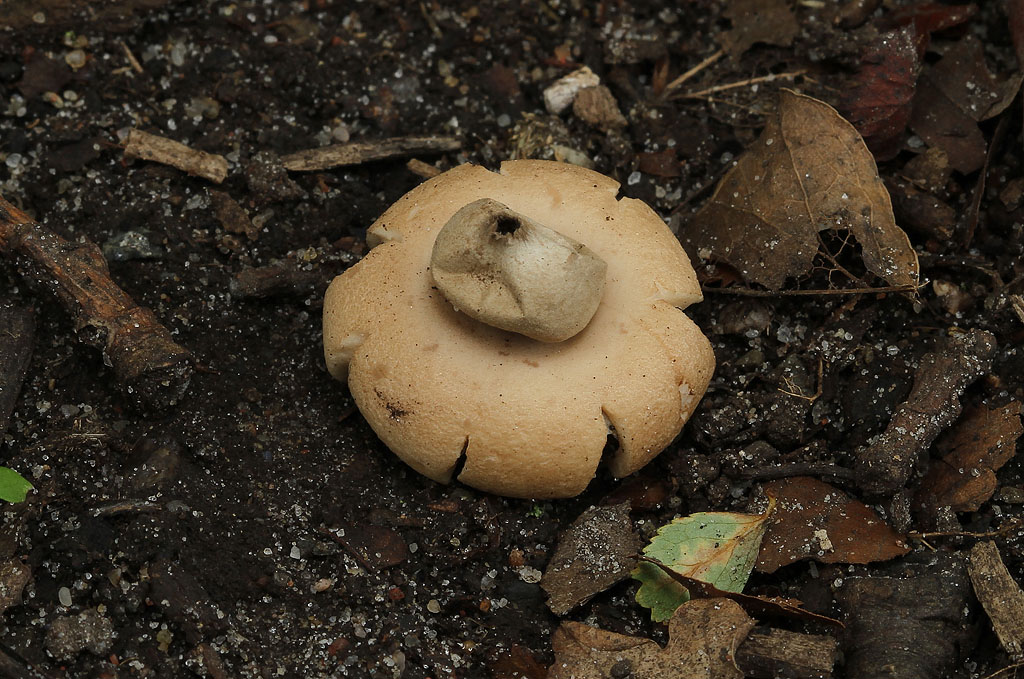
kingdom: Fungi
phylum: Basidiomycota
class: Agaricomycetes
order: Geastrales
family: Geastraceae
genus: Geastrum
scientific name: Geastrum fimbriatum
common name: frynset stjernebold
